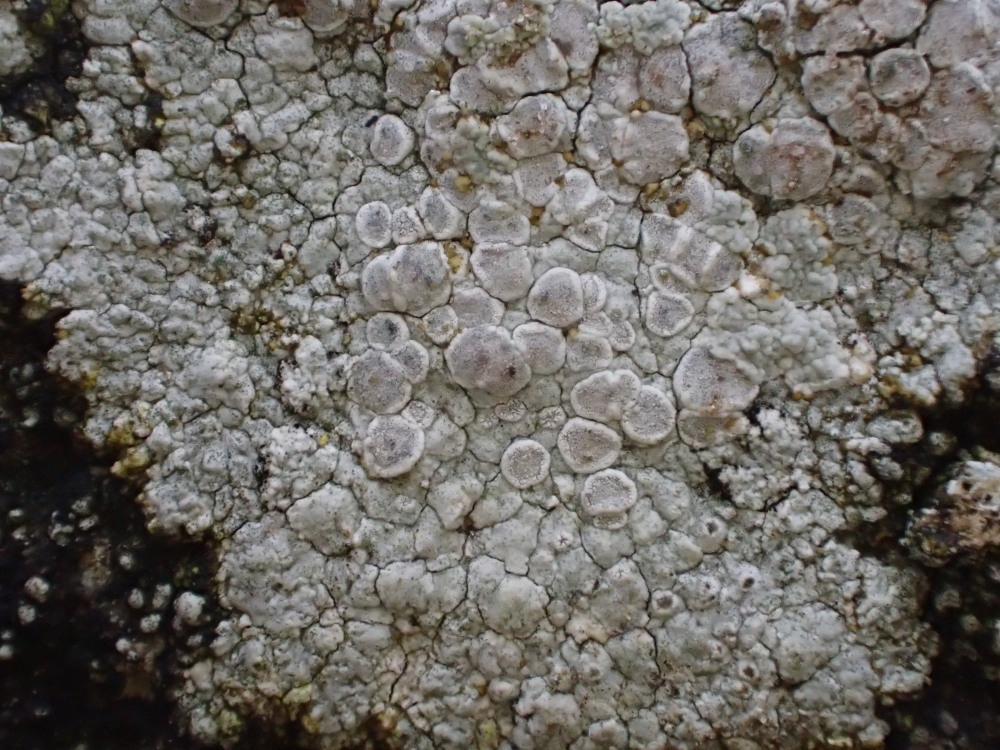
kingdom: Fungi
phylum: Ascomycota
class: Lecanoromycetes
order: Pertusariales
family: Ochrolechiaceae
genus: Ochrolechia
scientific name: Ochrolechia parella
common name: almindelig blegskivelav
